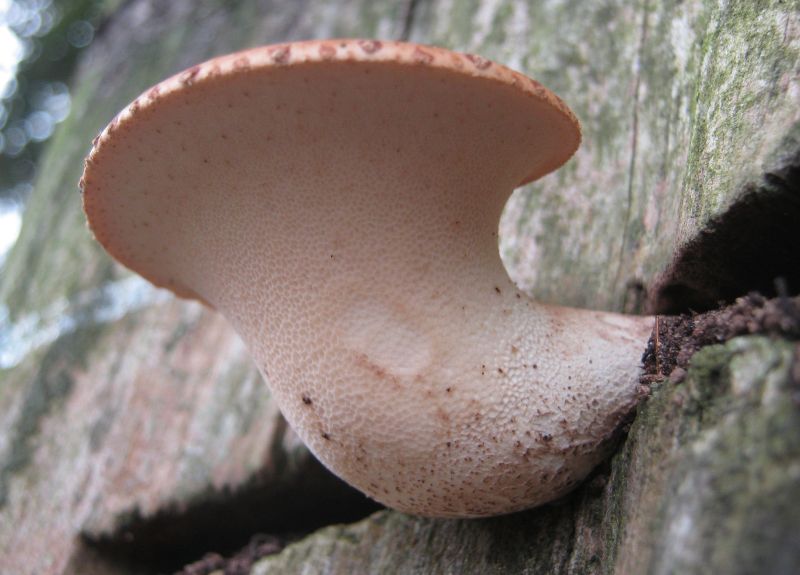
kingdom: Fungi
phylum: Basidiomycota
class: Agaricomycetes
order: Polyporales
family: Polyporaceae
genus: Cerioporus
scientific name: Cerioporus squamosus
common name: skællet stilkporesvamp
